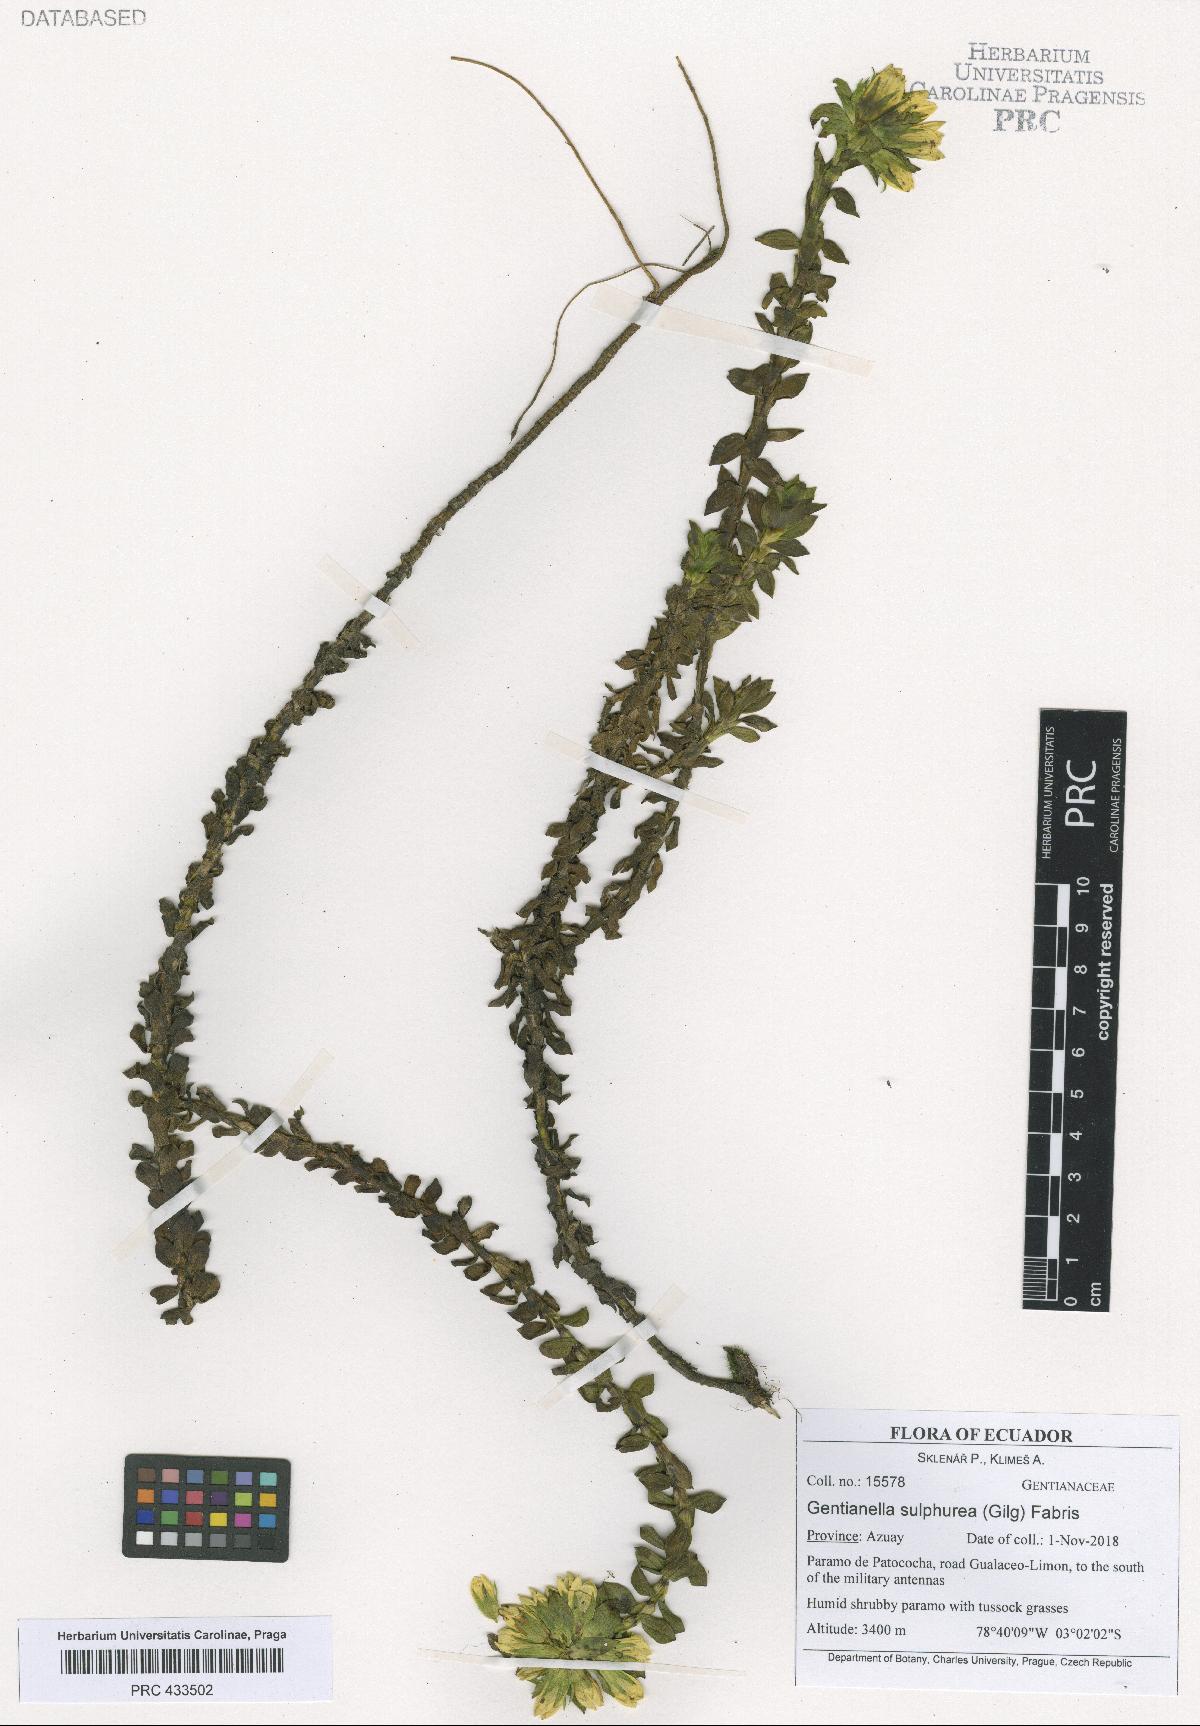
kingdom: Plantae
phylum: Tracheophyta
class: Magnoliopsida
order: Gentianales
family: Gentianaceae
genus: Gentianella
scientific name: Gentianella sulphurea
